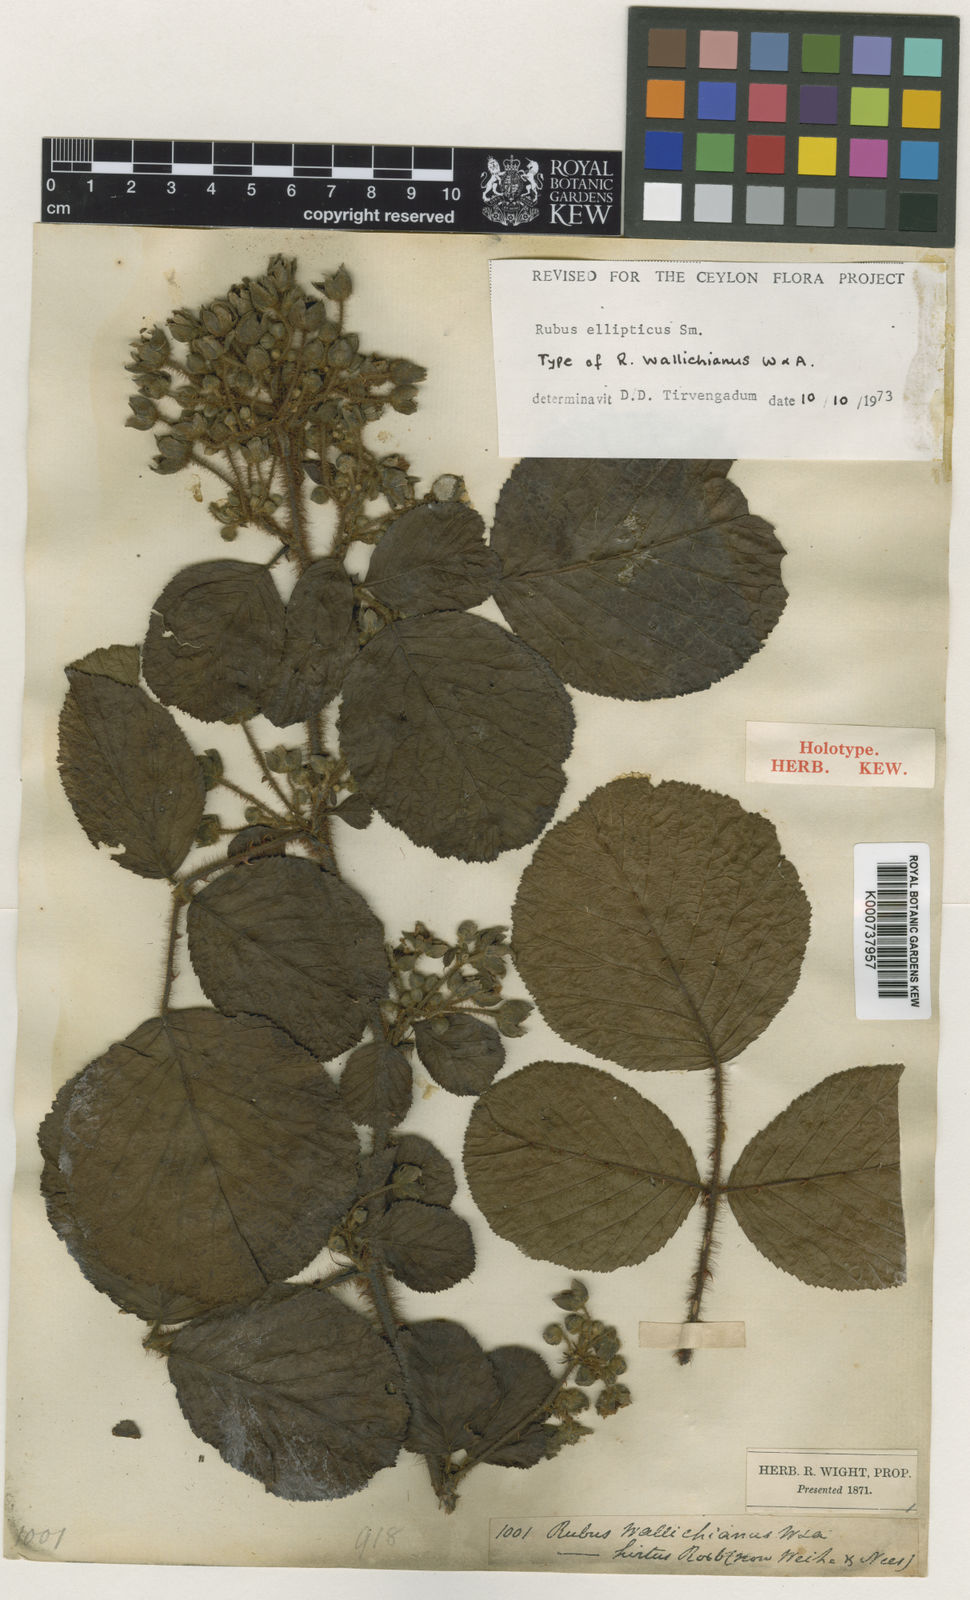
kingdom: Plantae
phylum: Tracheophyta
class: Magnoliopsida
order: Rosales
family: Rosaceae
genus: Rubus
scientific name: Rubus ellipticus
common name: Cheeseberry
